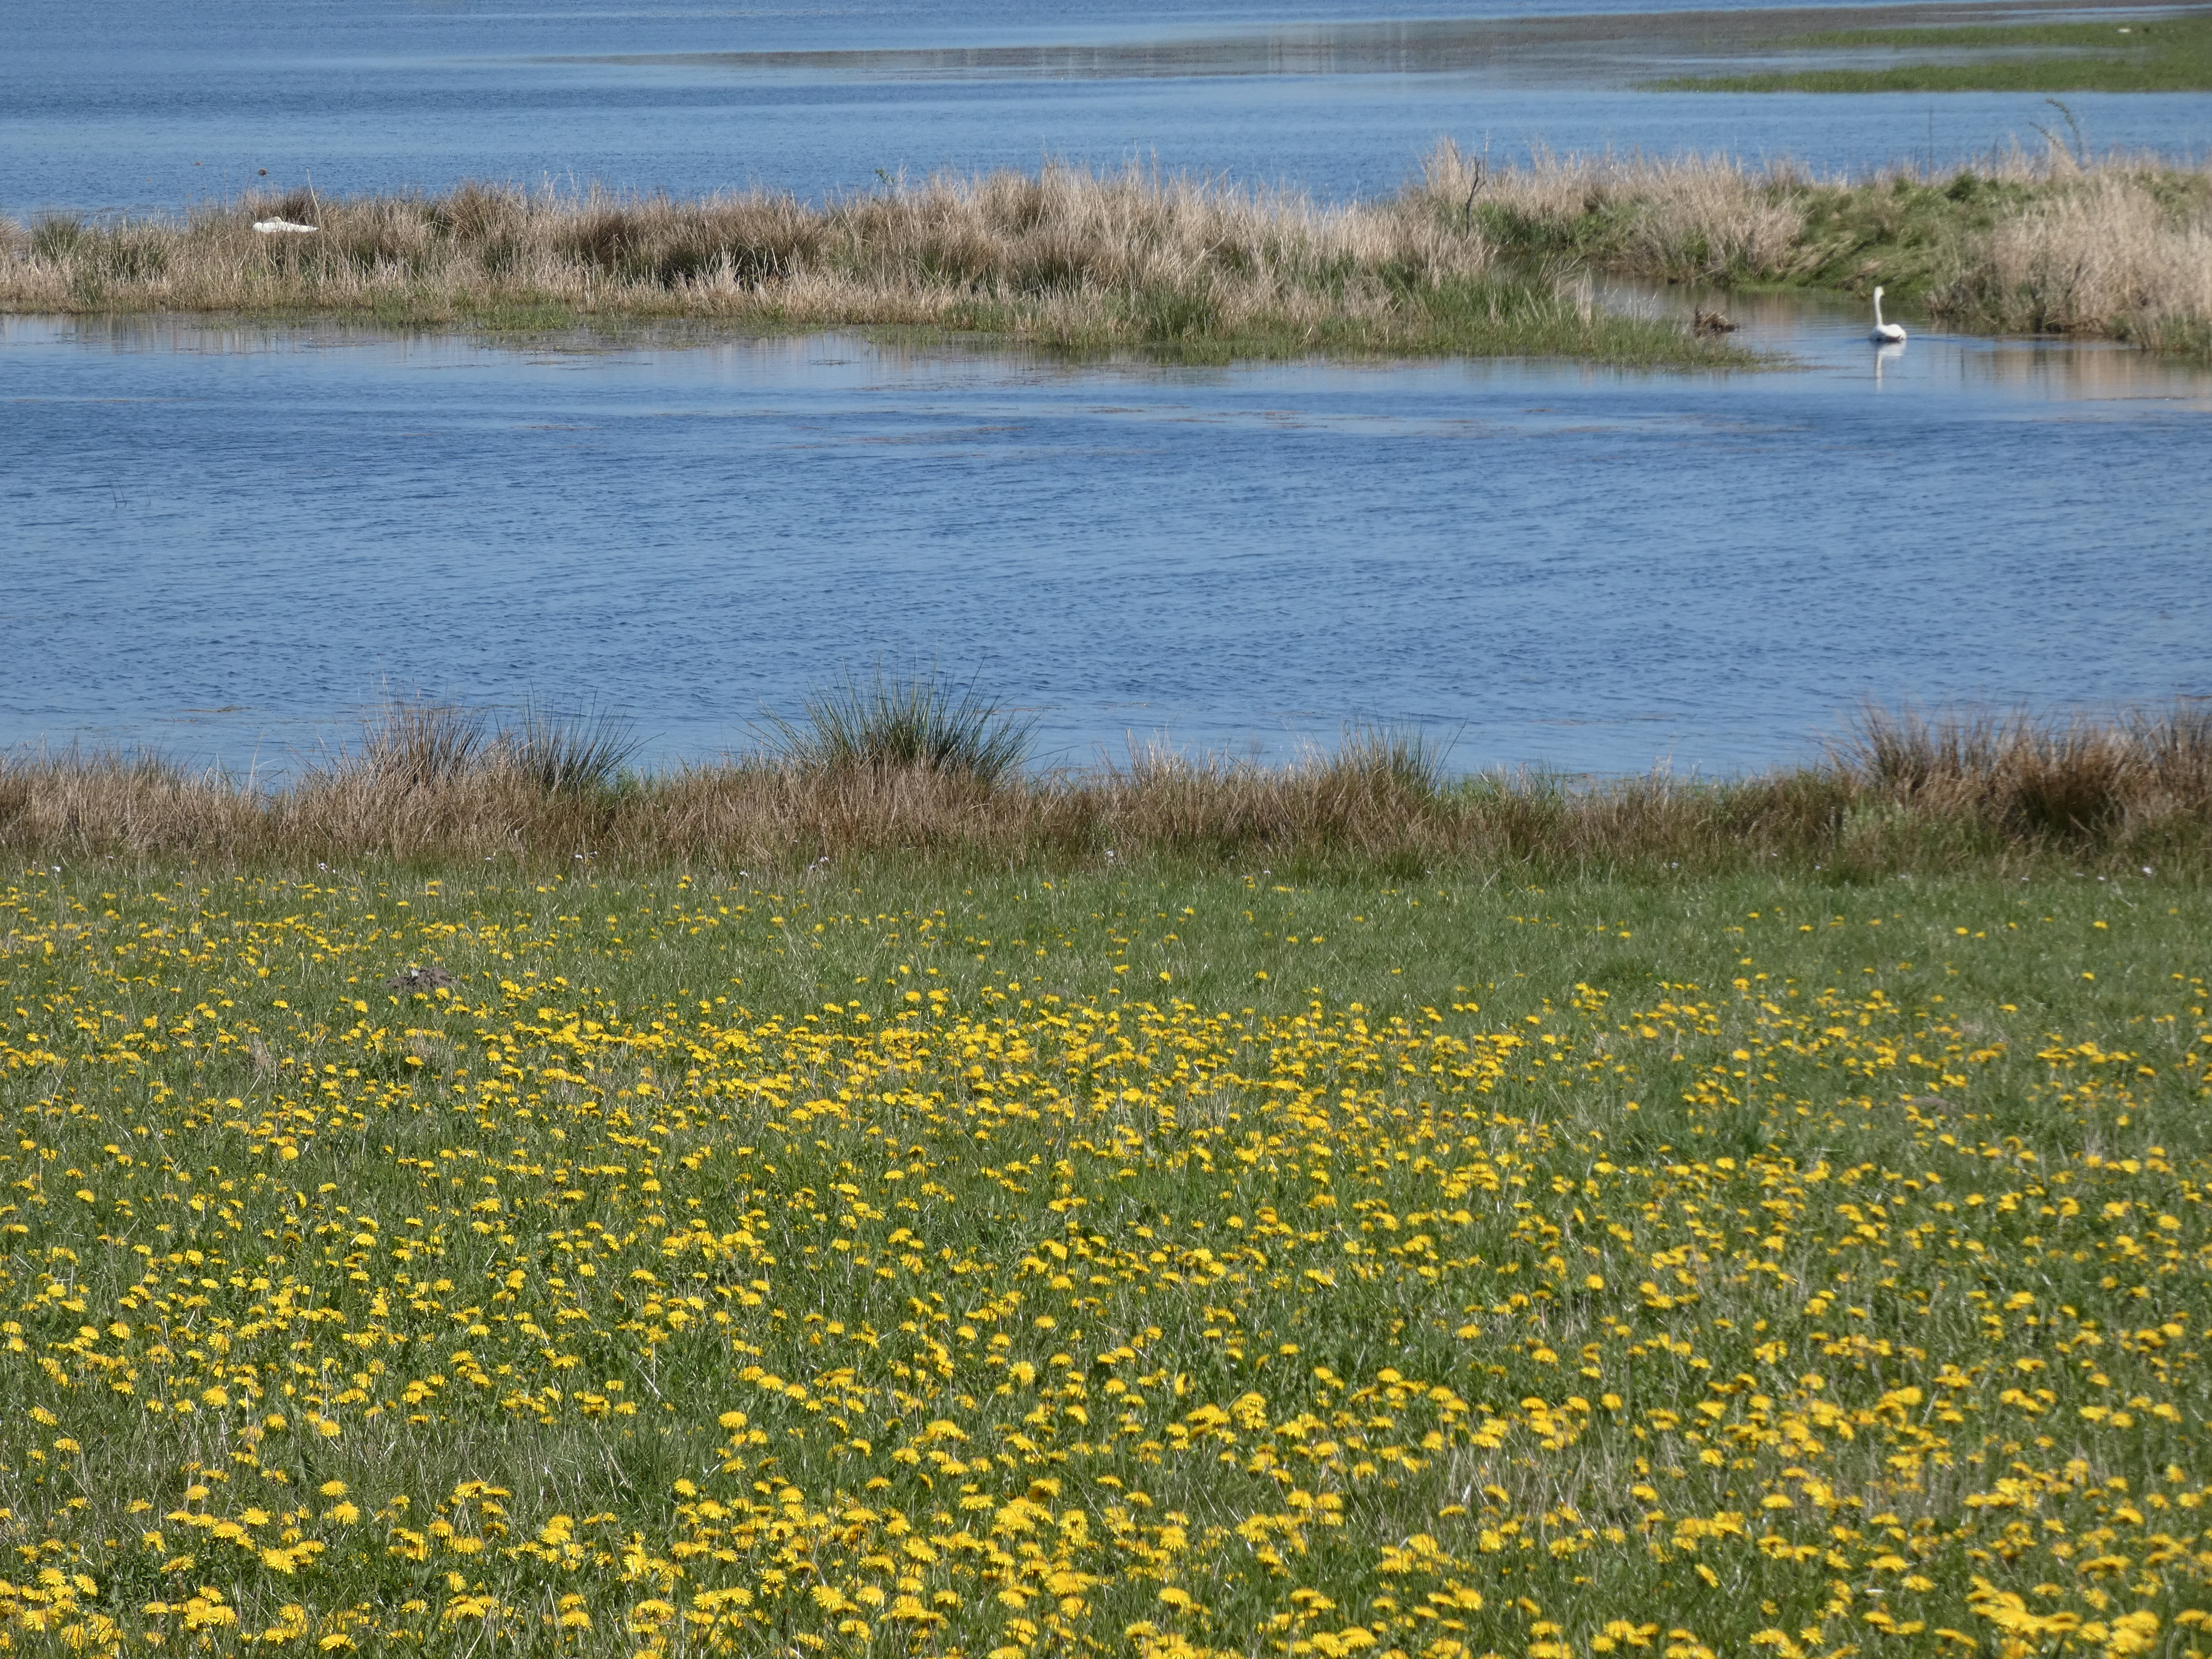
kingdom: Animalia
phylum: Chordata
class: Aves
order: Anseriformes
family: Anatidae
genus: Cygnus
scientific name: Cygnus cygnus
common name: Sangsvane
